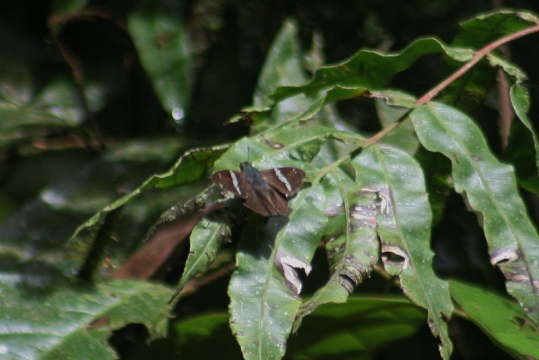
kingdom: Animalia
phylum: Arthropoda
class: Insecta
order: Lepidoptera
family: Hesperiidae
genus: Autochton
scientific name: Autochton longipennis
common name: Spike Banded-Skipper
